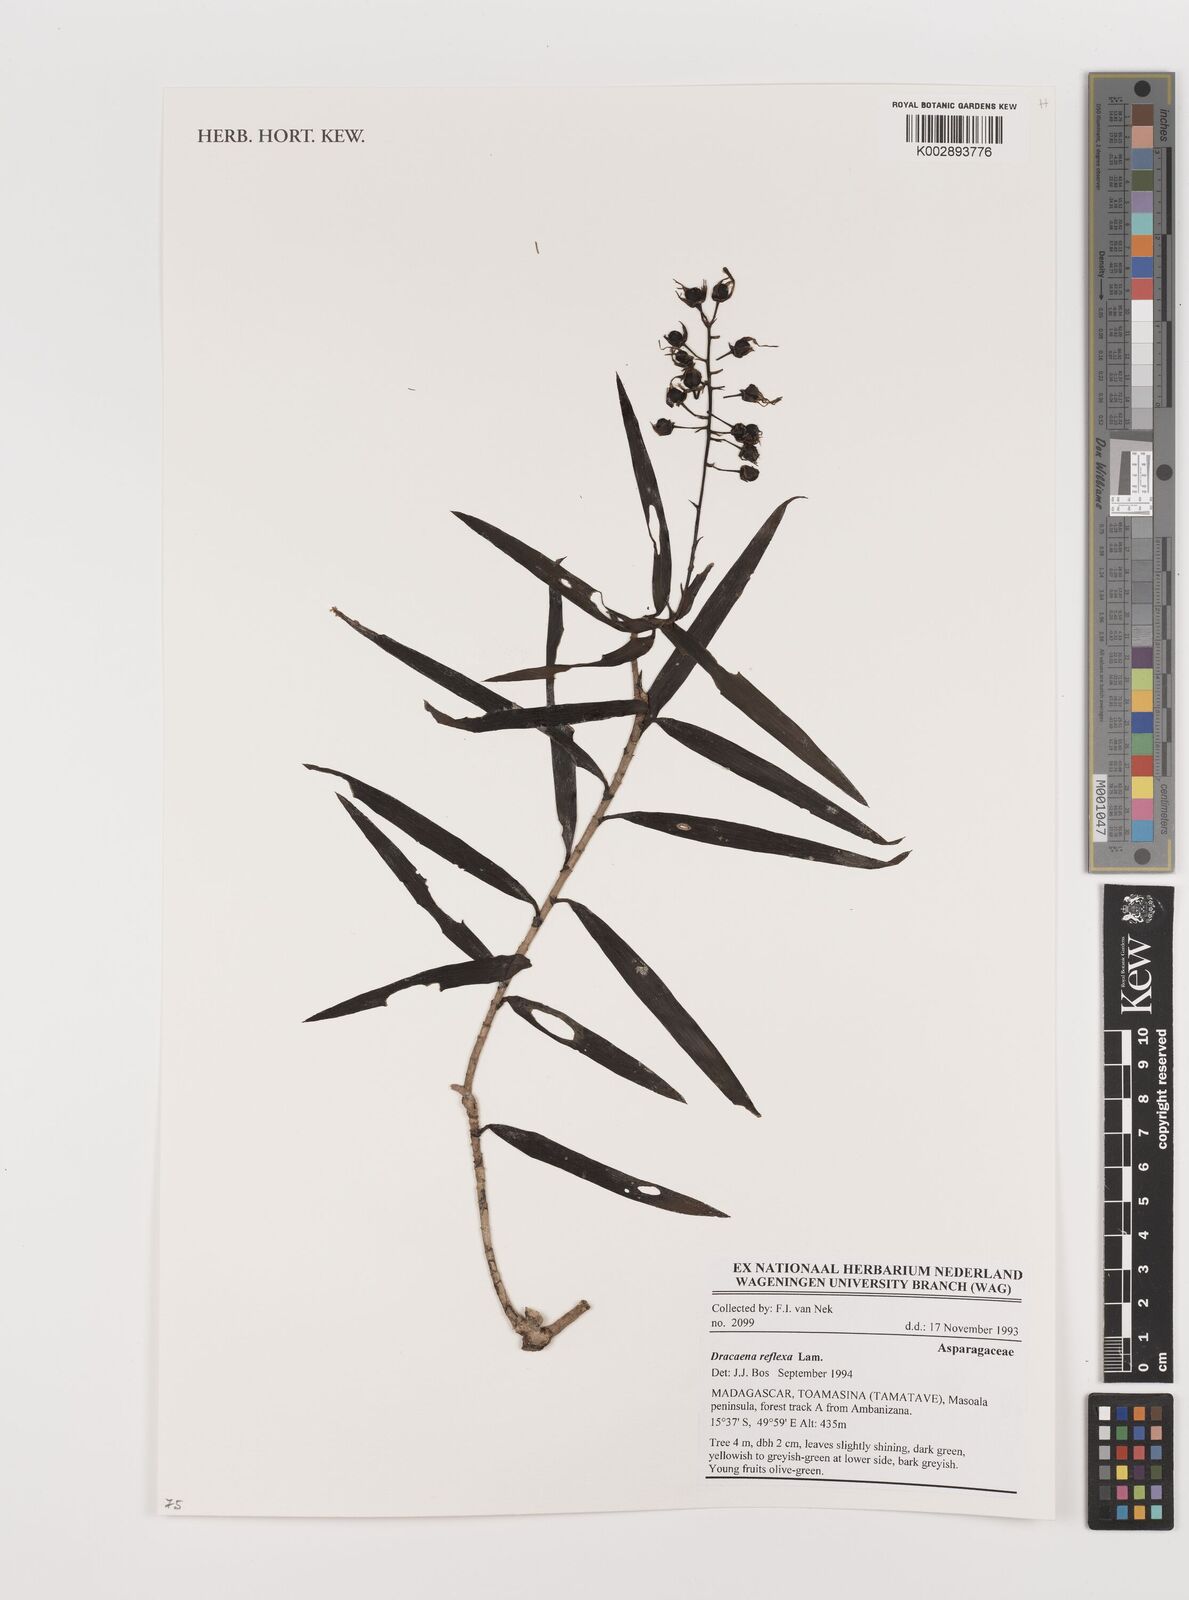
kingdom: Plantae
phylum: Tracheophyta
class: Liliopsida
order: Asparagales
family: Asparagaceae
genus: Dracaena
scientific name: Dracaena reflexa
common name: Song-of-india
